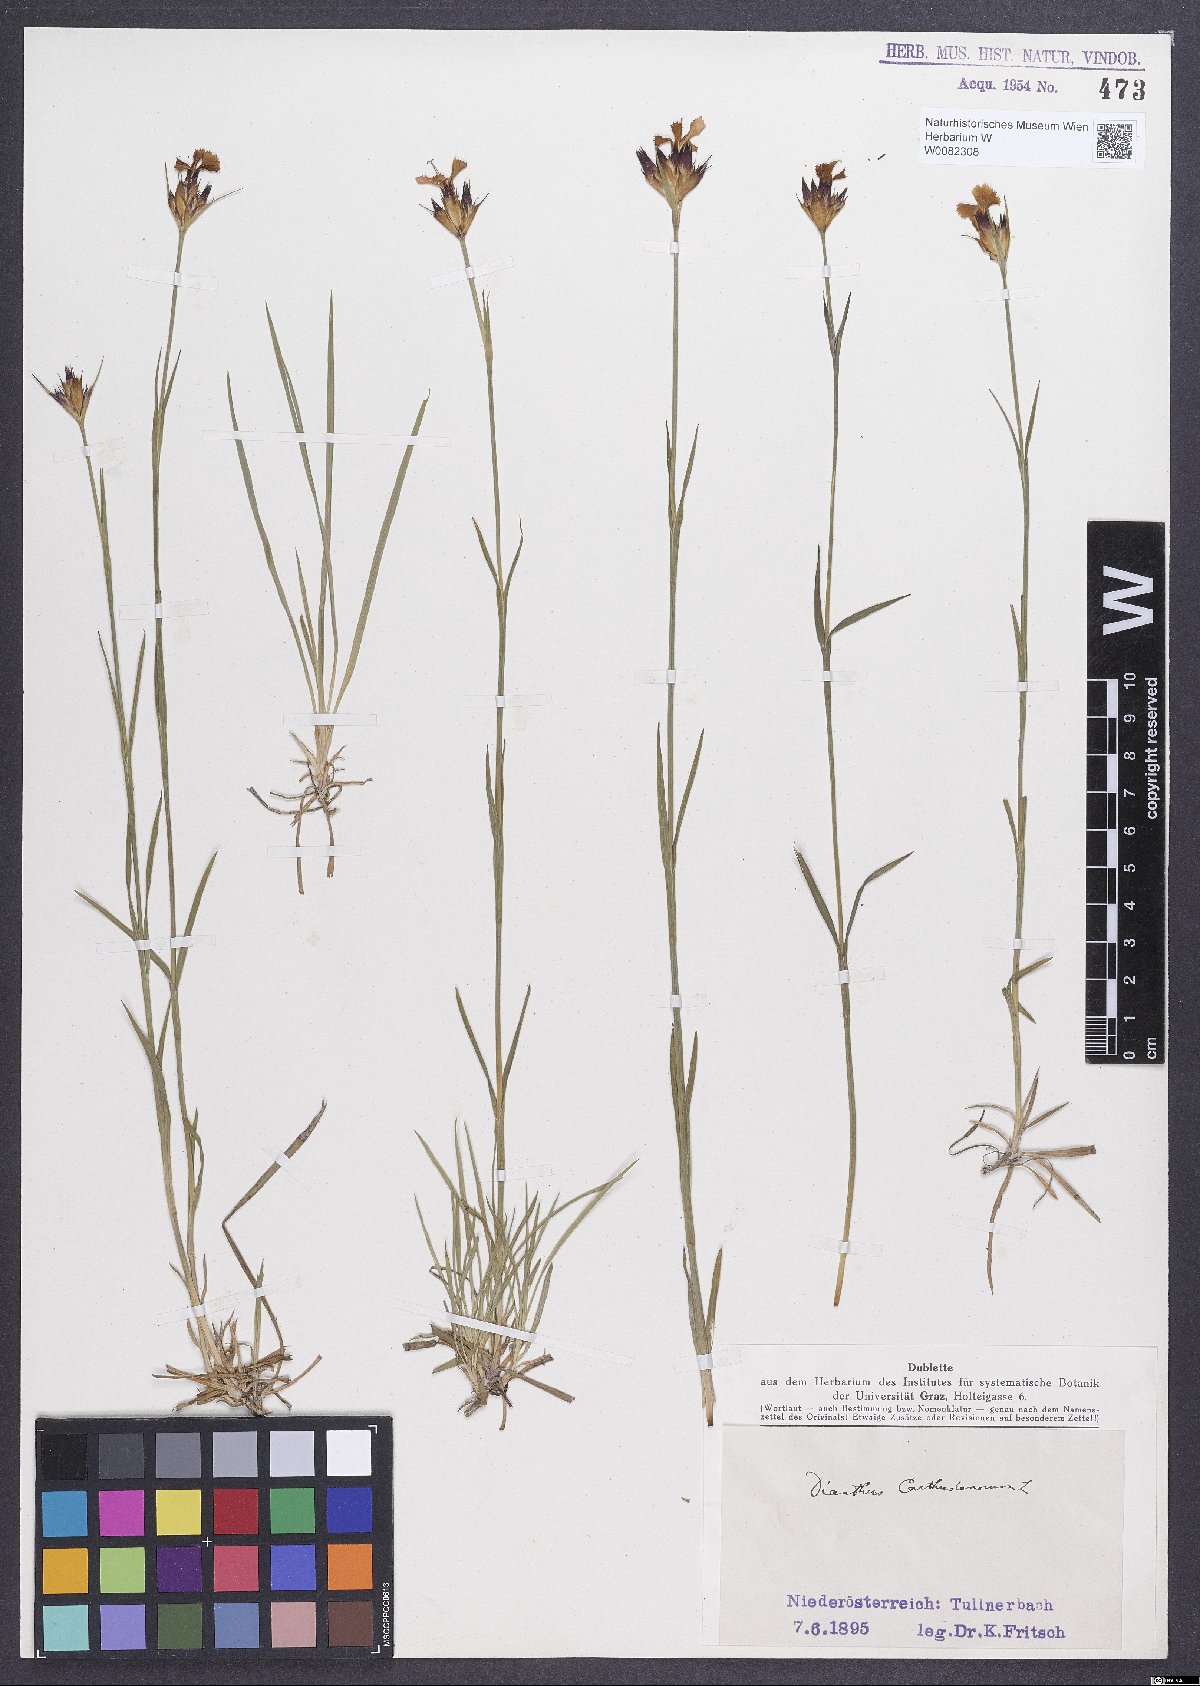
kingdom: Plantae
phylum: Tracheophyta
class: Magnoliopsida
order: Caryophyllales
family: Caryophyllaceae
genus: Dianthus
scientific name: Dianthus carthusianorum
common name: Carthusian pink
